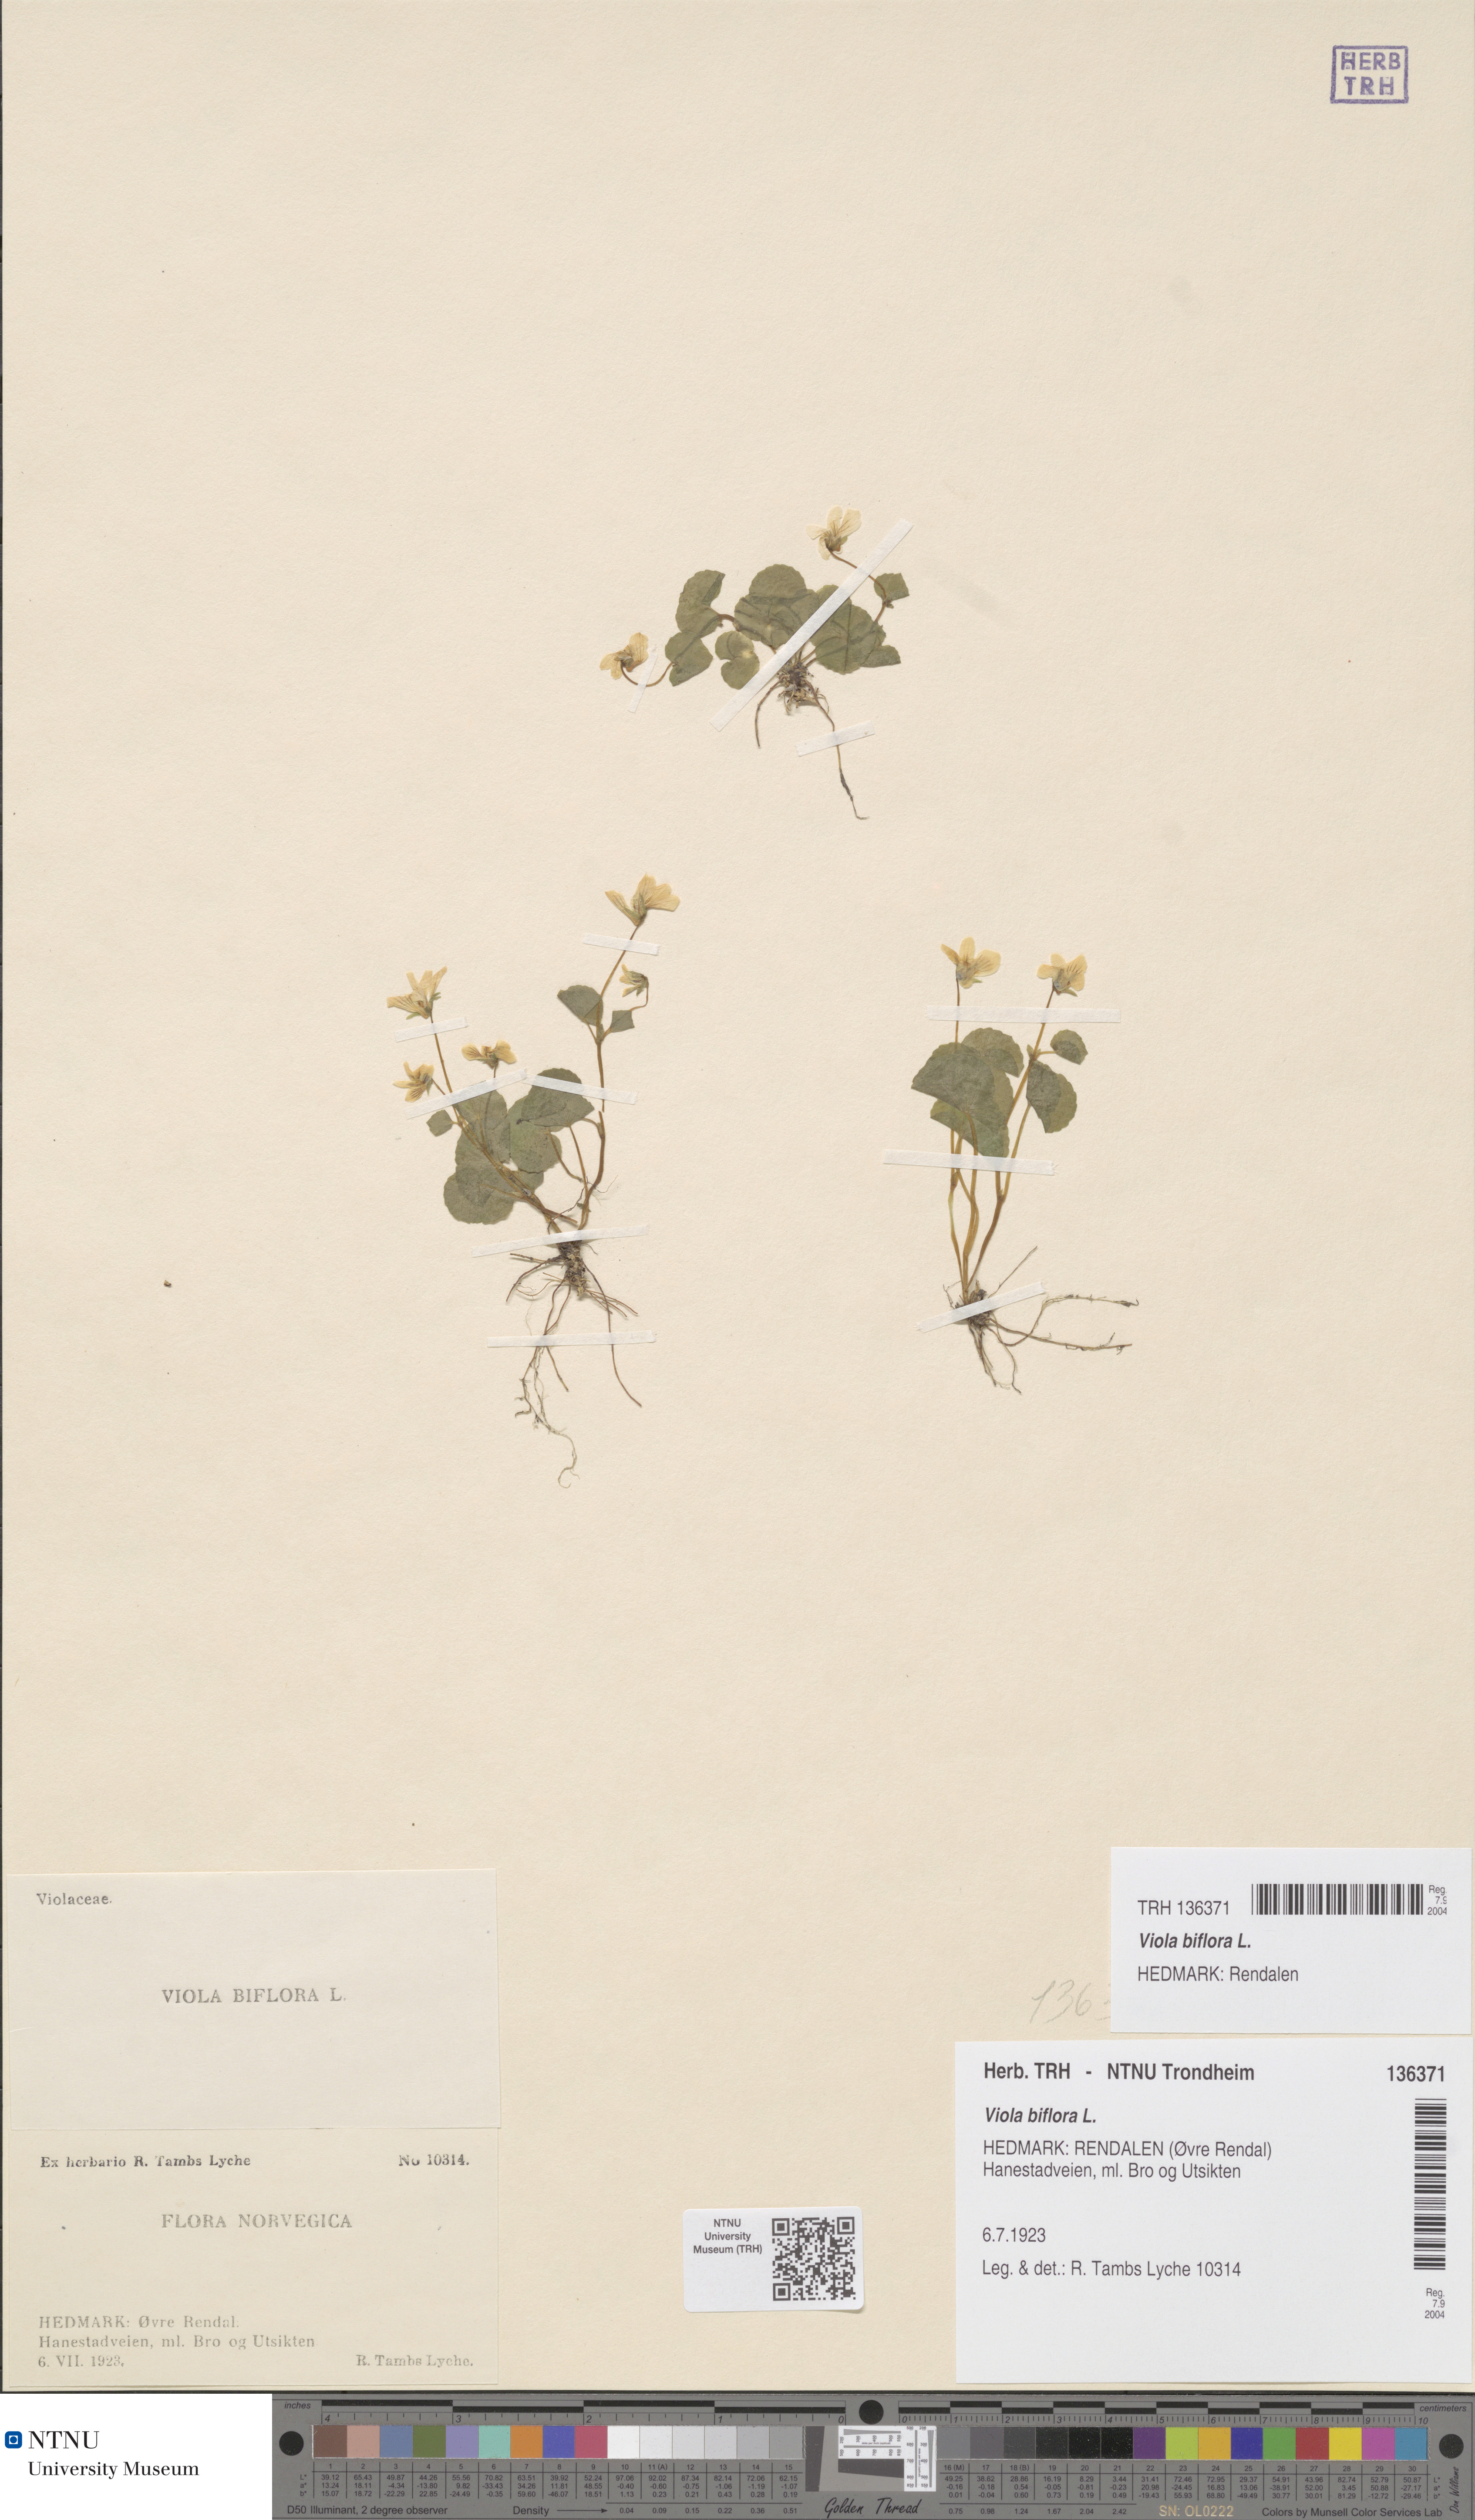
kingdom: Plantae
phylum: Tracheophyta
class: Magnoliopsida
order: Malpighiales
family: Violaceae
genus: Viola
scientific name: Viola biflora
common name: Alpine yellow violet
